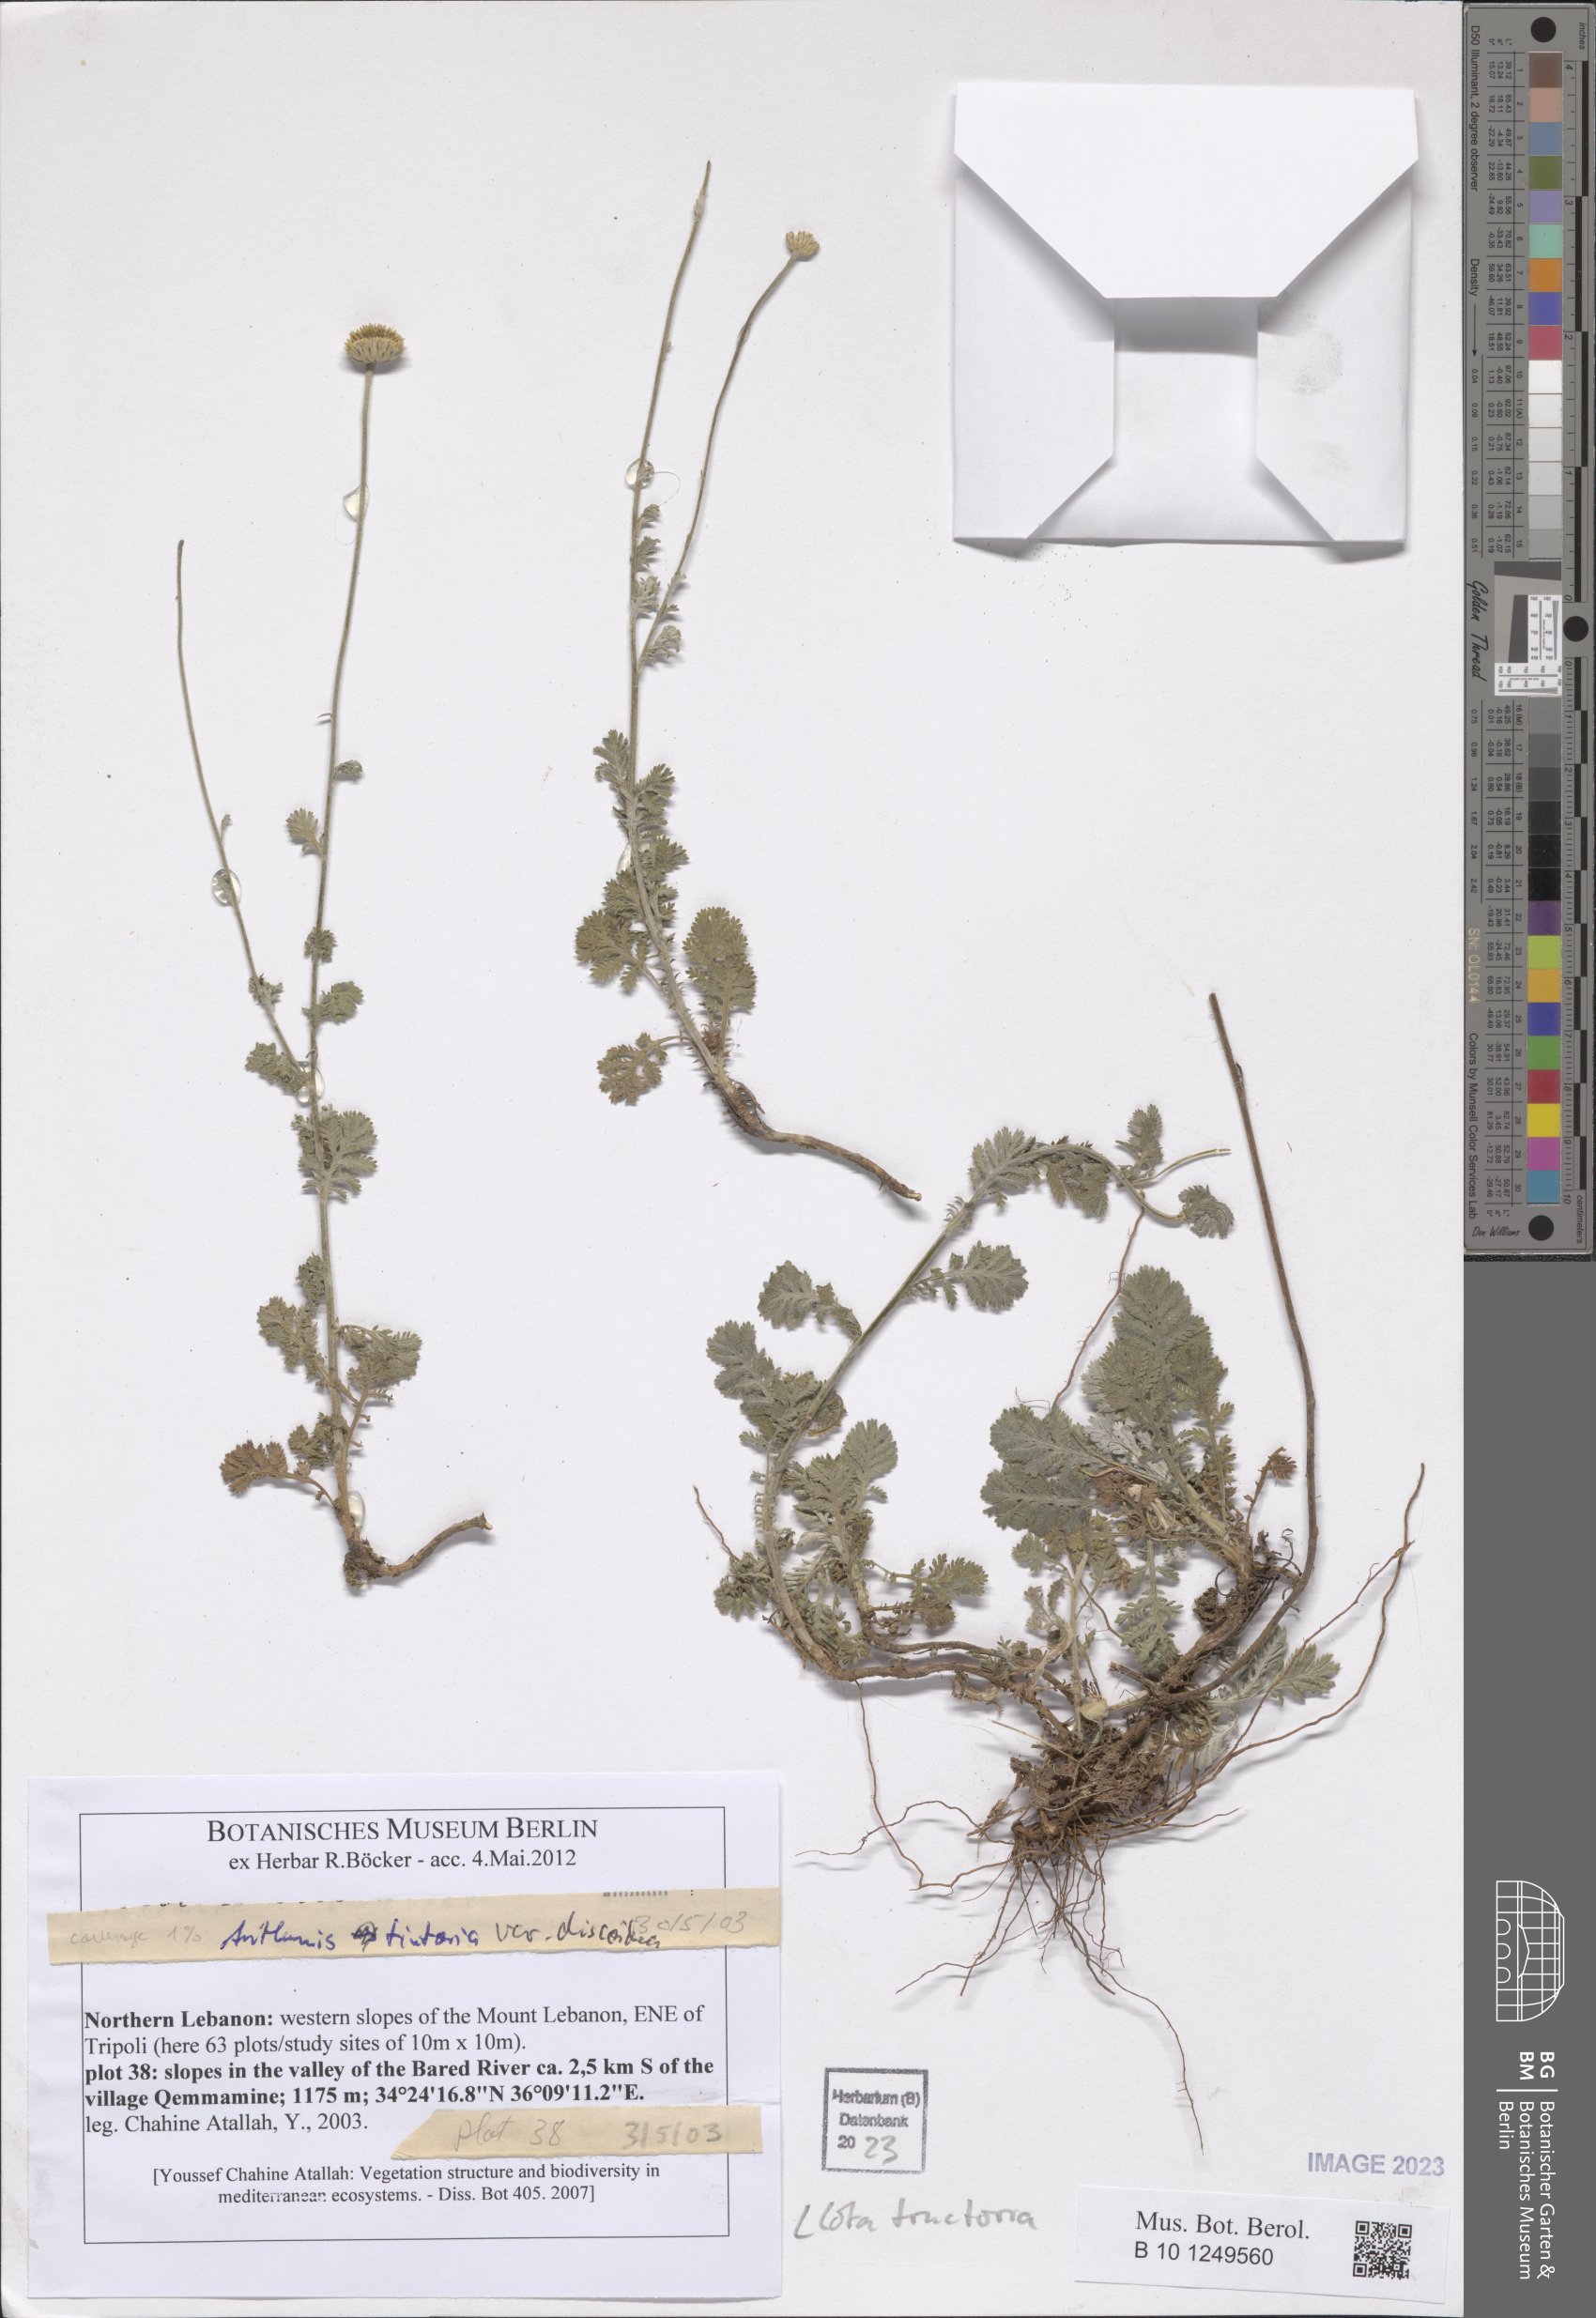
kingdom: Plantae
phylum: Tracheophyta
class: Magnoliopsida
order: Asterales
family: Asteraceae
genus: Cota
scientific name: Cota tinctoria
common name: Golden chamomile
